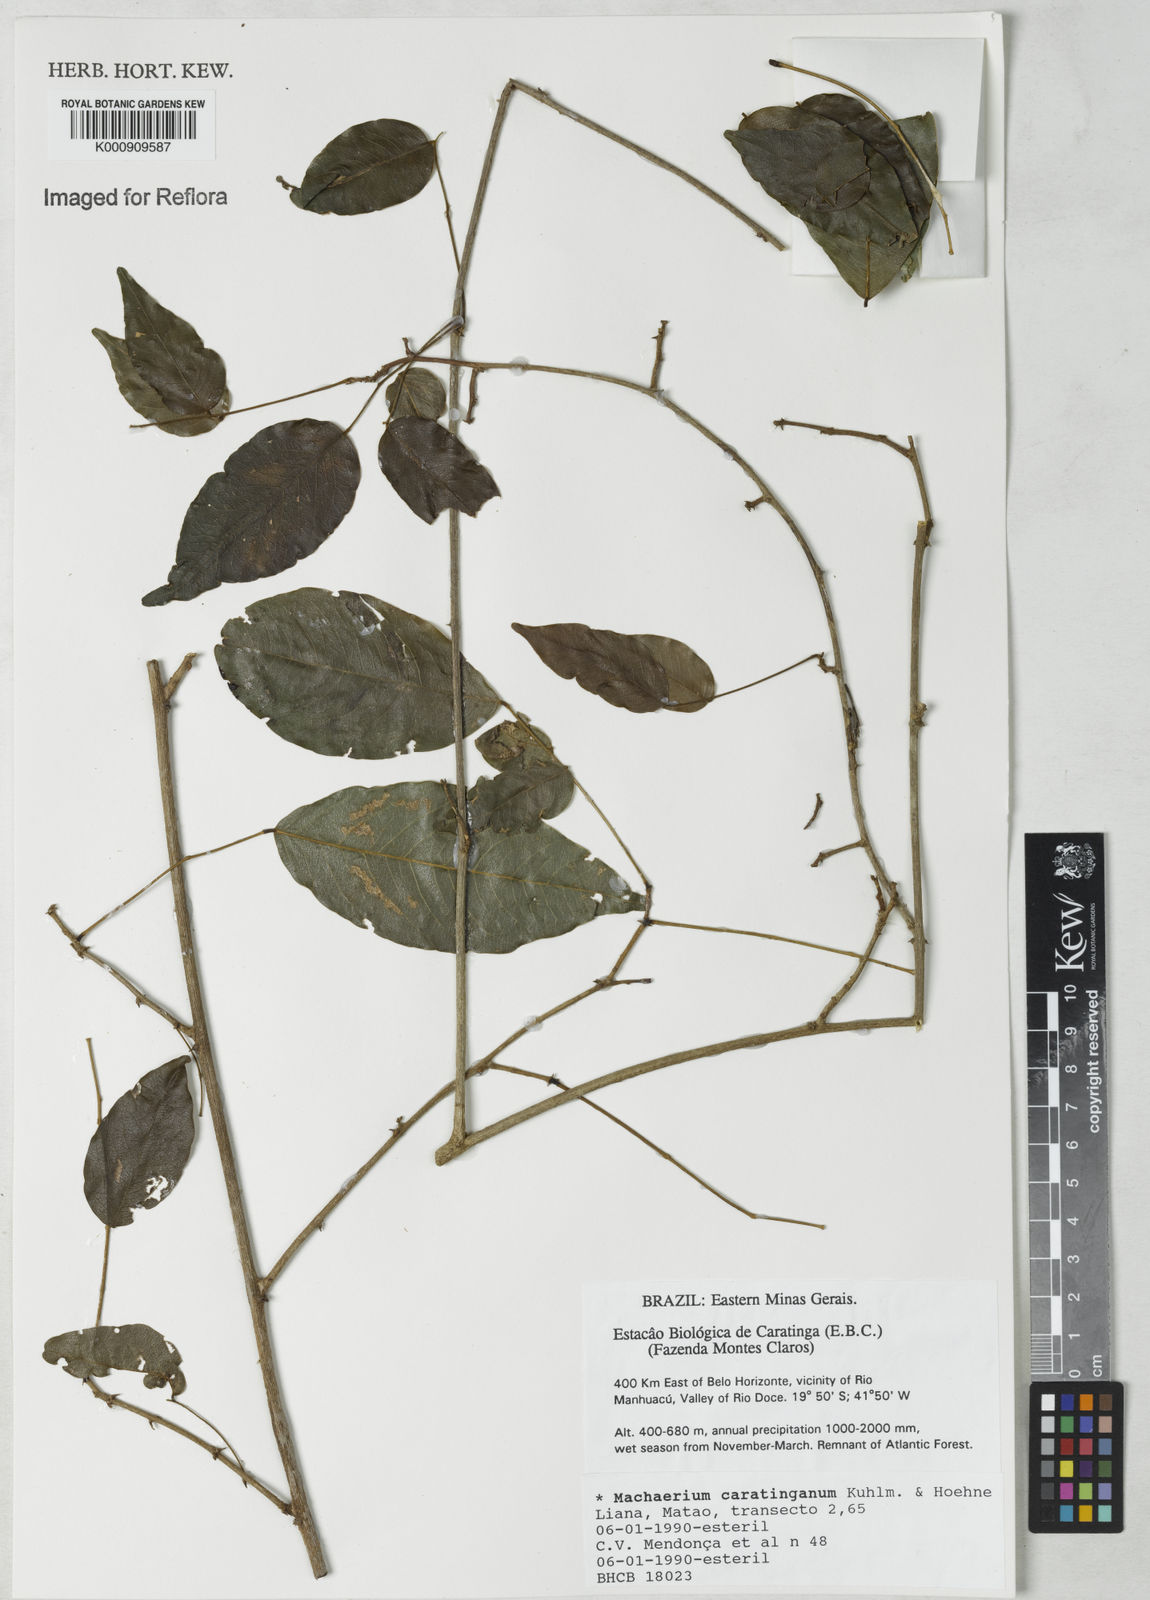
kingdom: Plantae
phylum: Tracheophyta
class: Magnoliopsida
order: Fabales
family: Fabaceae
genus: Machaerium
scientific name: Machaerium caratinganum
